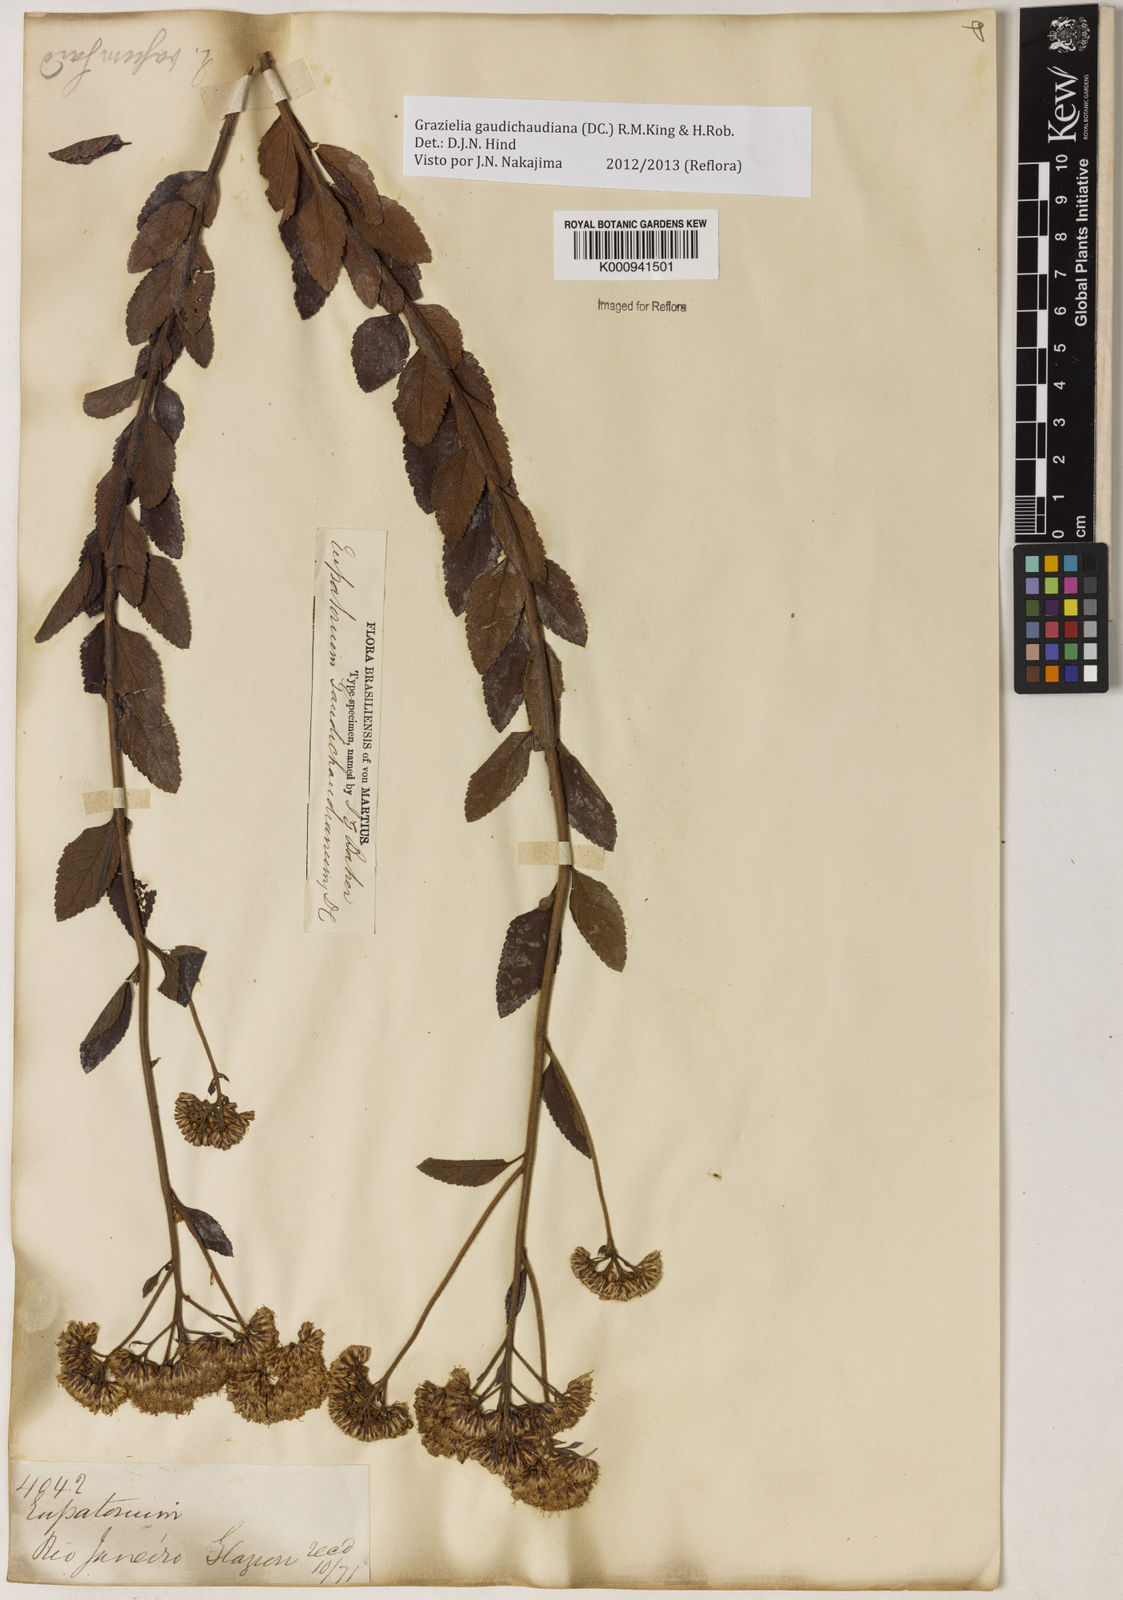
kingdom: Plantae
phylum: Tracheophyta
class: Magnoliopsida
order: Asterales
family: Asteraceae
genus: Grazielia
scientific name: Grazielia
